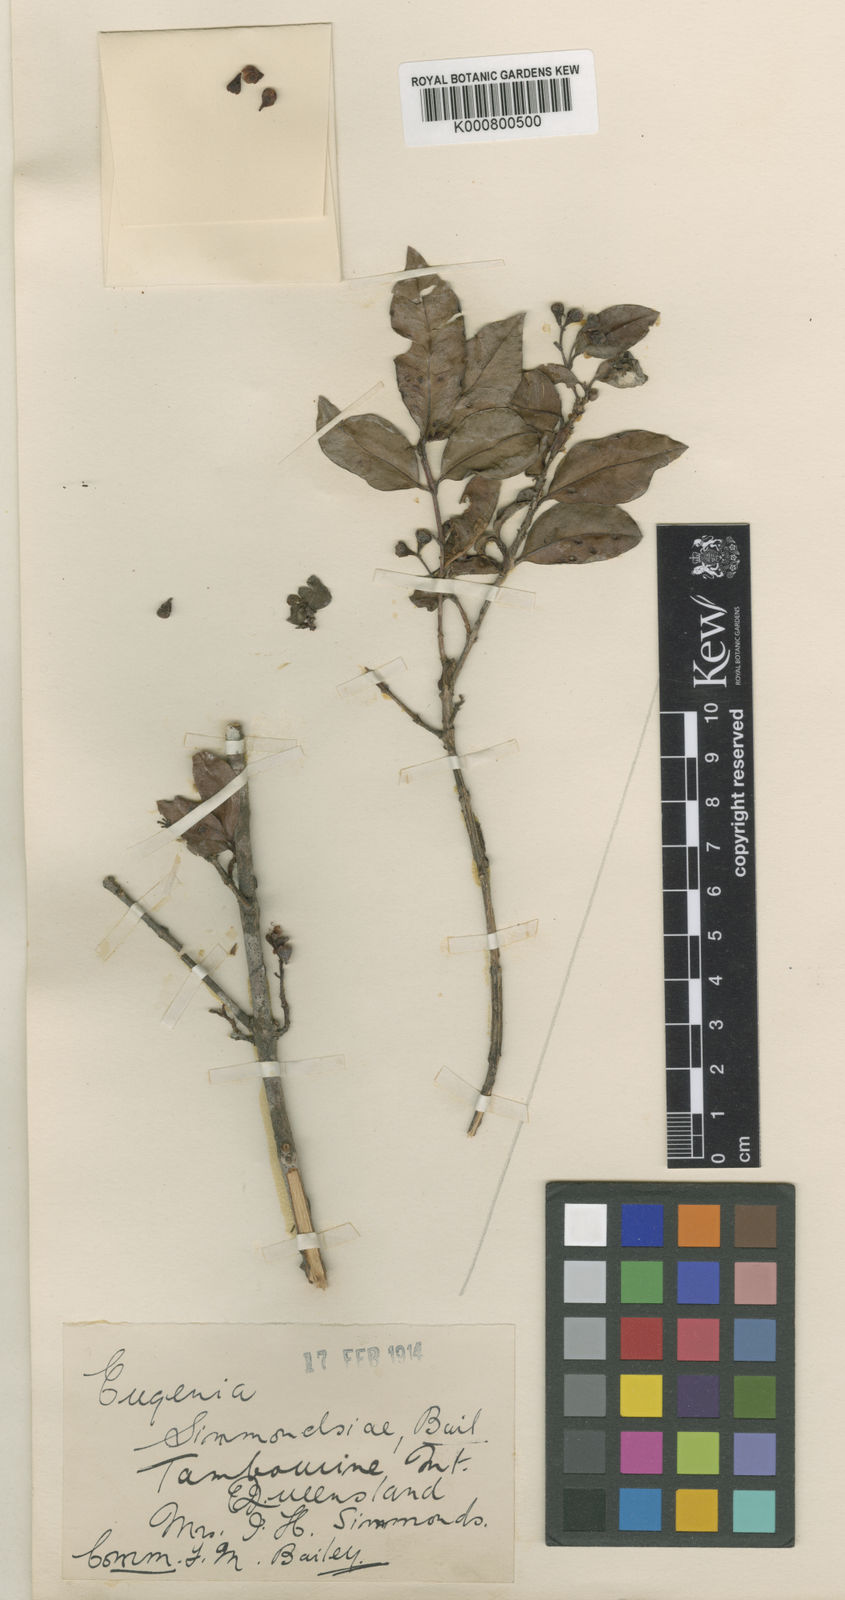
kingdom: Plantae
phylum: Tracheophyta
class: Magnoliopsida
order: Myrtales
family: Myrtaceae
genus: Syzygium
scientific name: Syzygium paniculatum
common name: Magenta lilly-pilly
